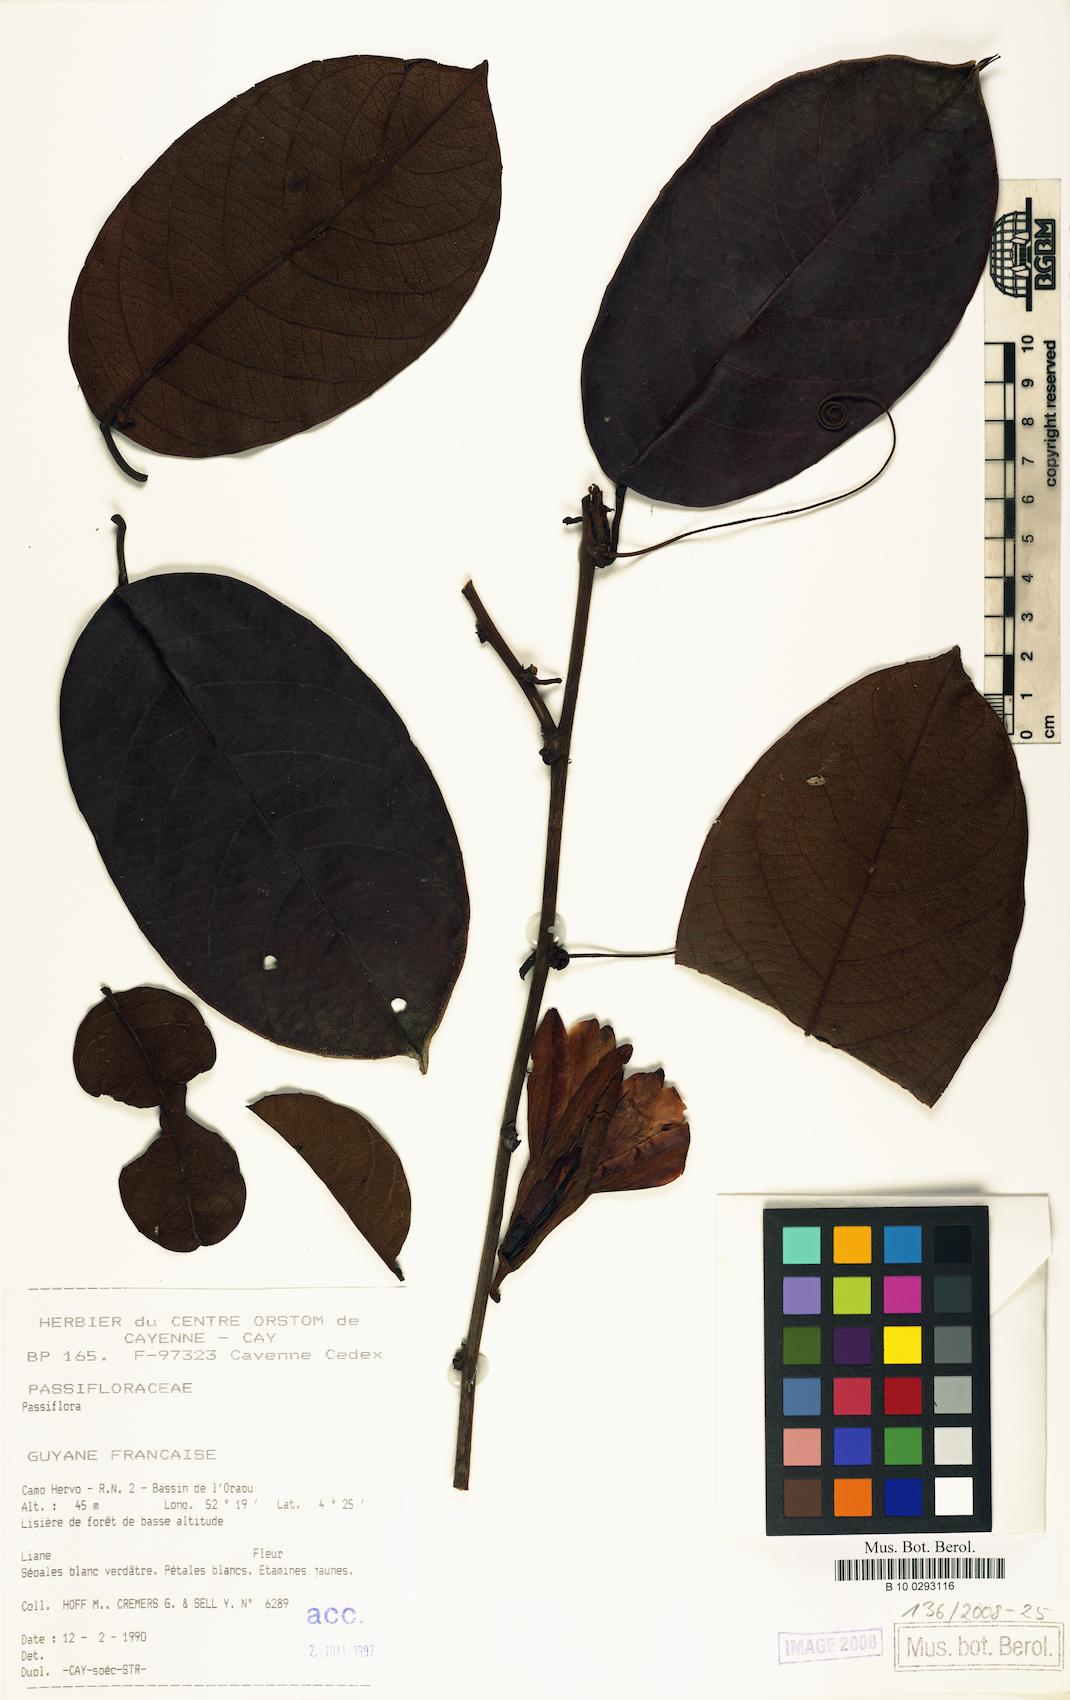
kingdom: Plantae
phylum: Tracheophyta
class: Magnoliopsida
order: Malpighiales
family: Passifloraceae
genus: Passiflora
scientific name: Passiflora candida
